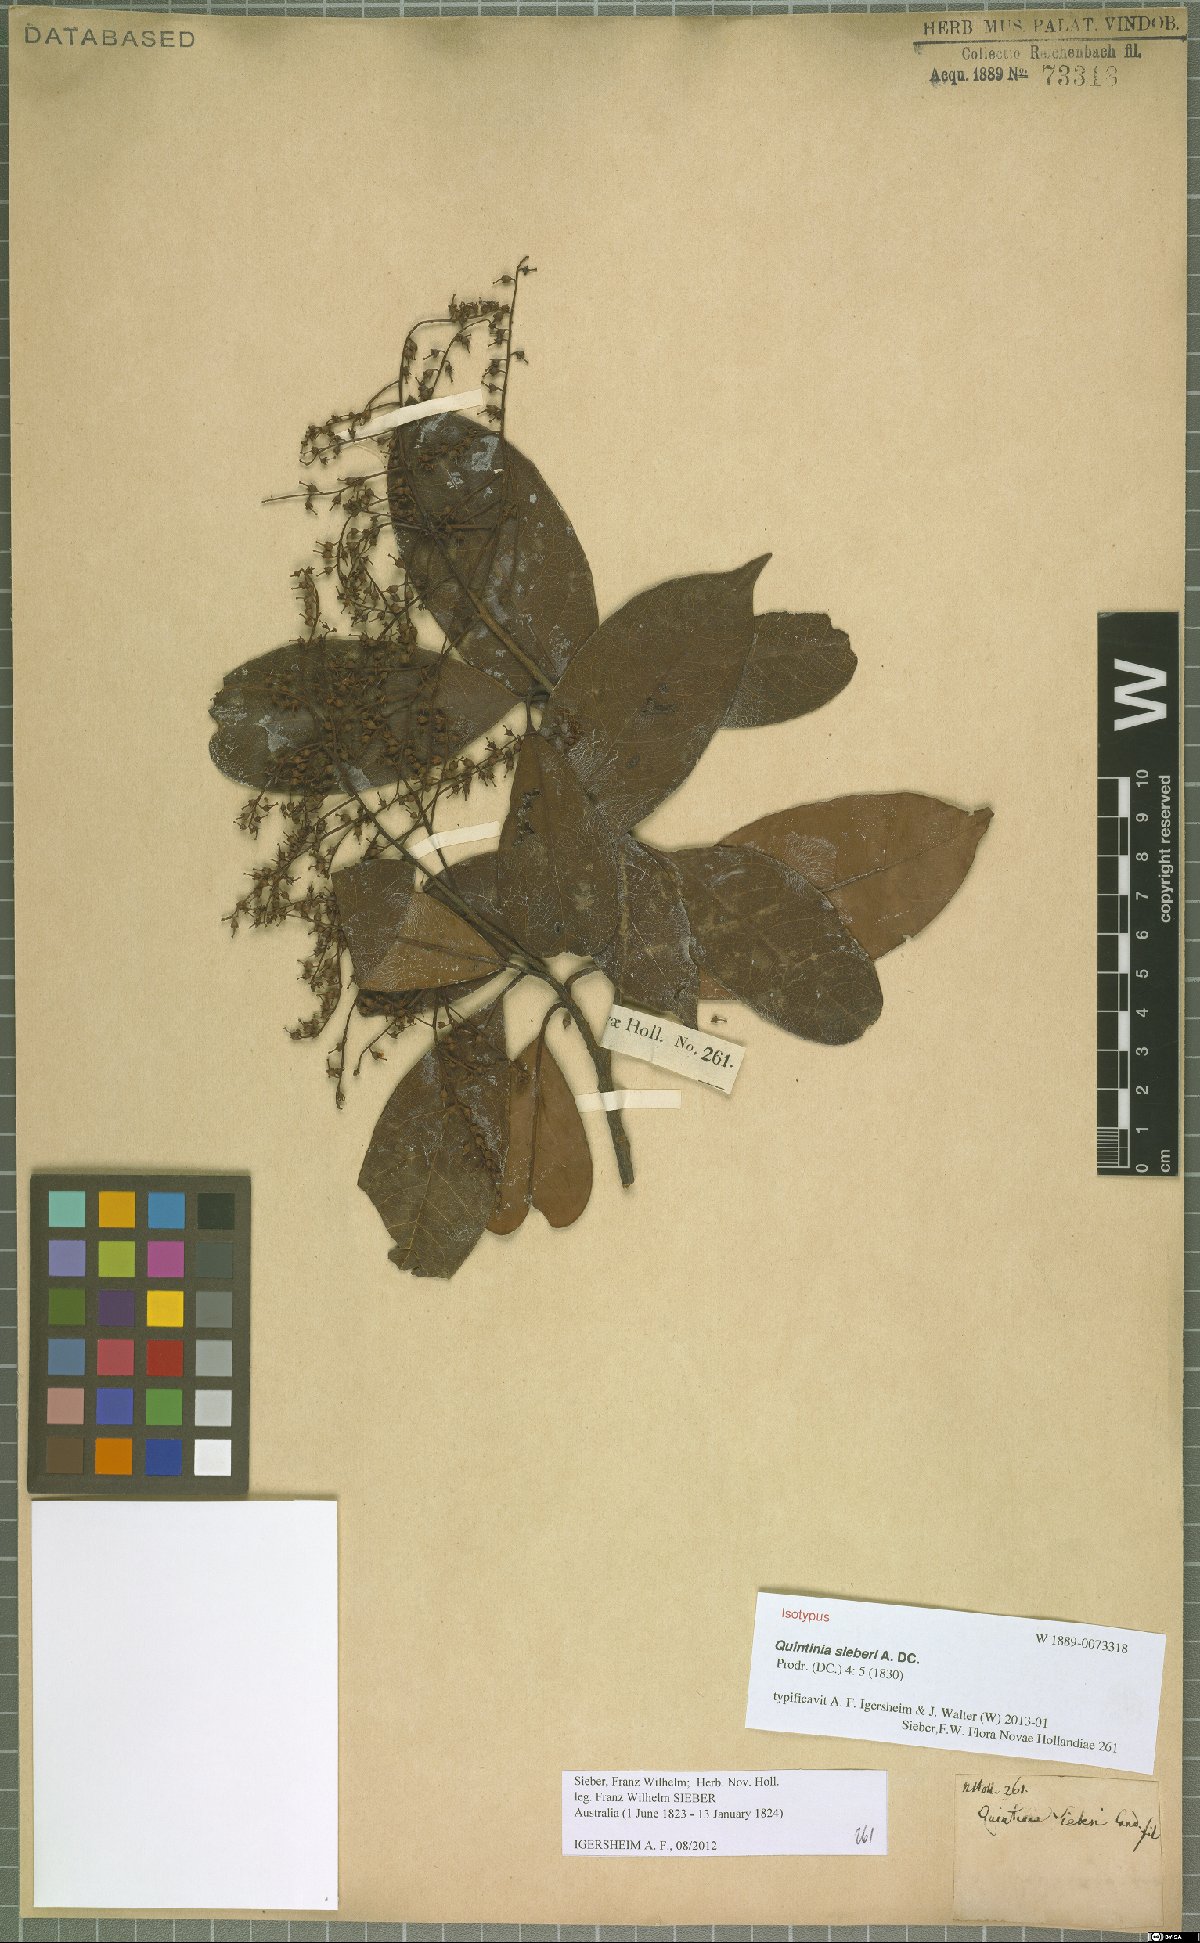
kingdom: Plantae
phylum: Tracheophyta
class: Magnoliopsida
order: Paracryphiales
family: Paracryphiaceae
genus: Quintinia
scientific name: Quintinia sieberi
